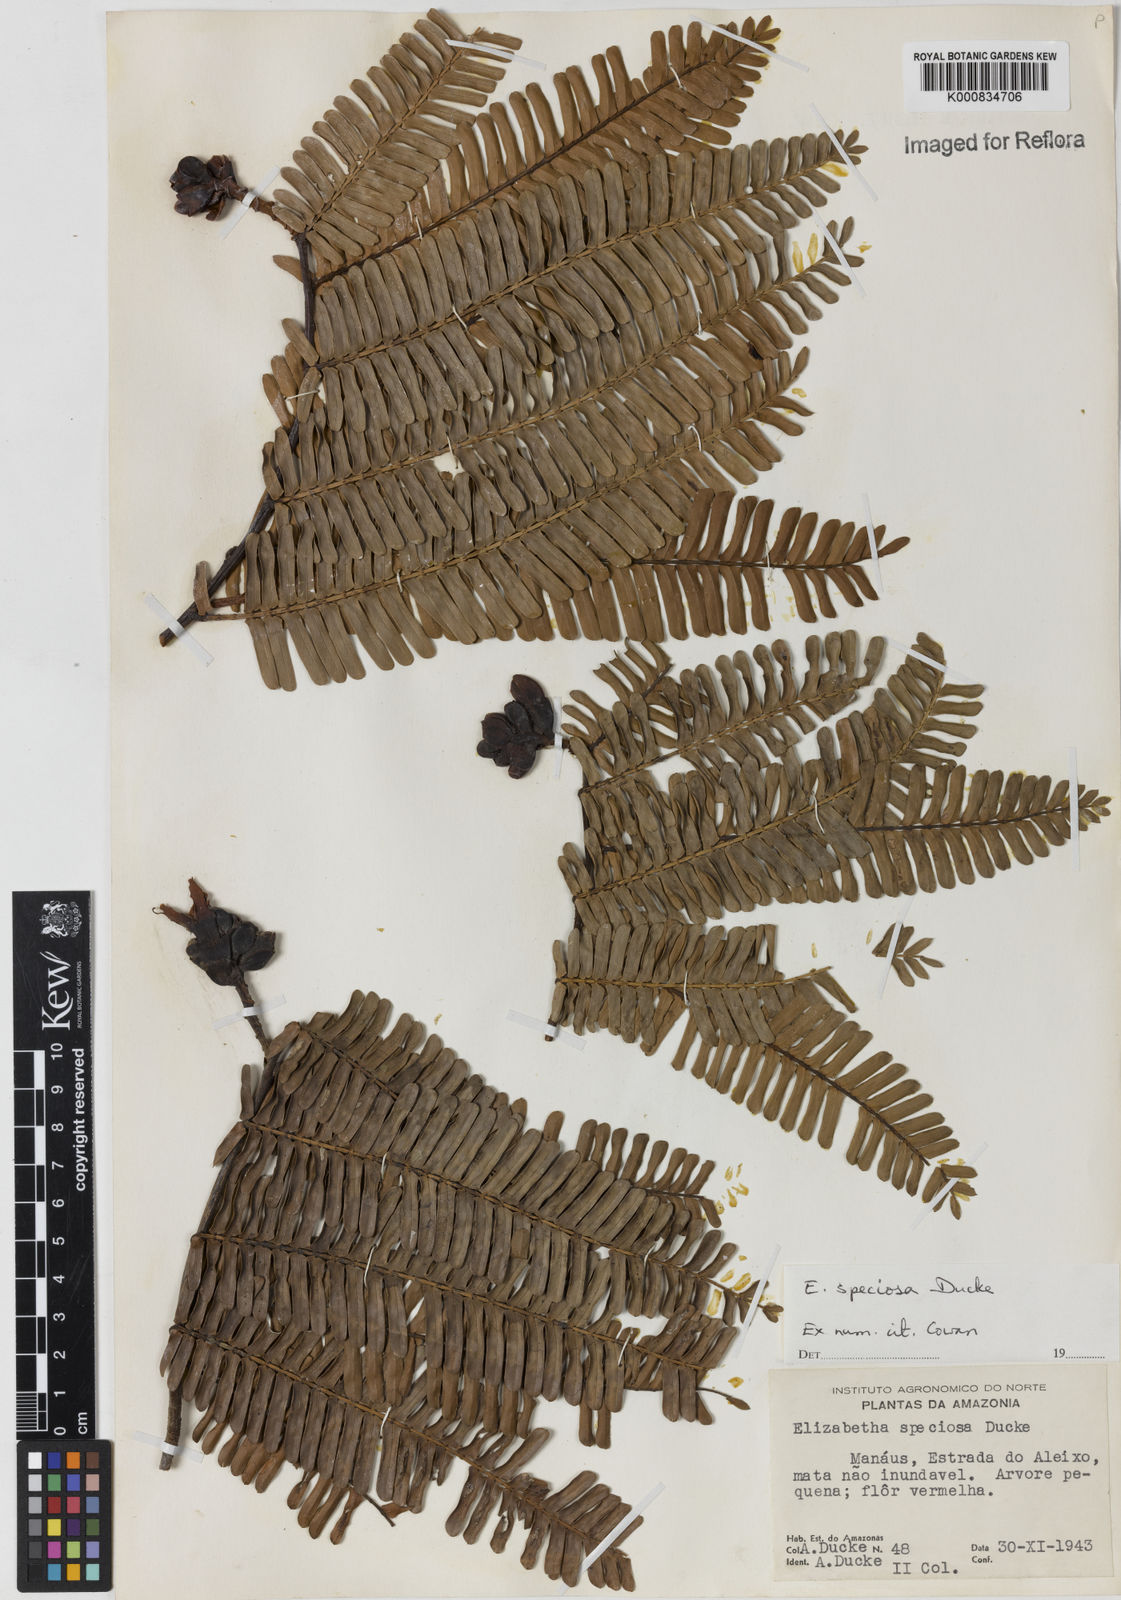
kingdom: Plantae
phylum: Tracheophyta
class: Magnoliopsida
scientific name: Magnoliopsida
